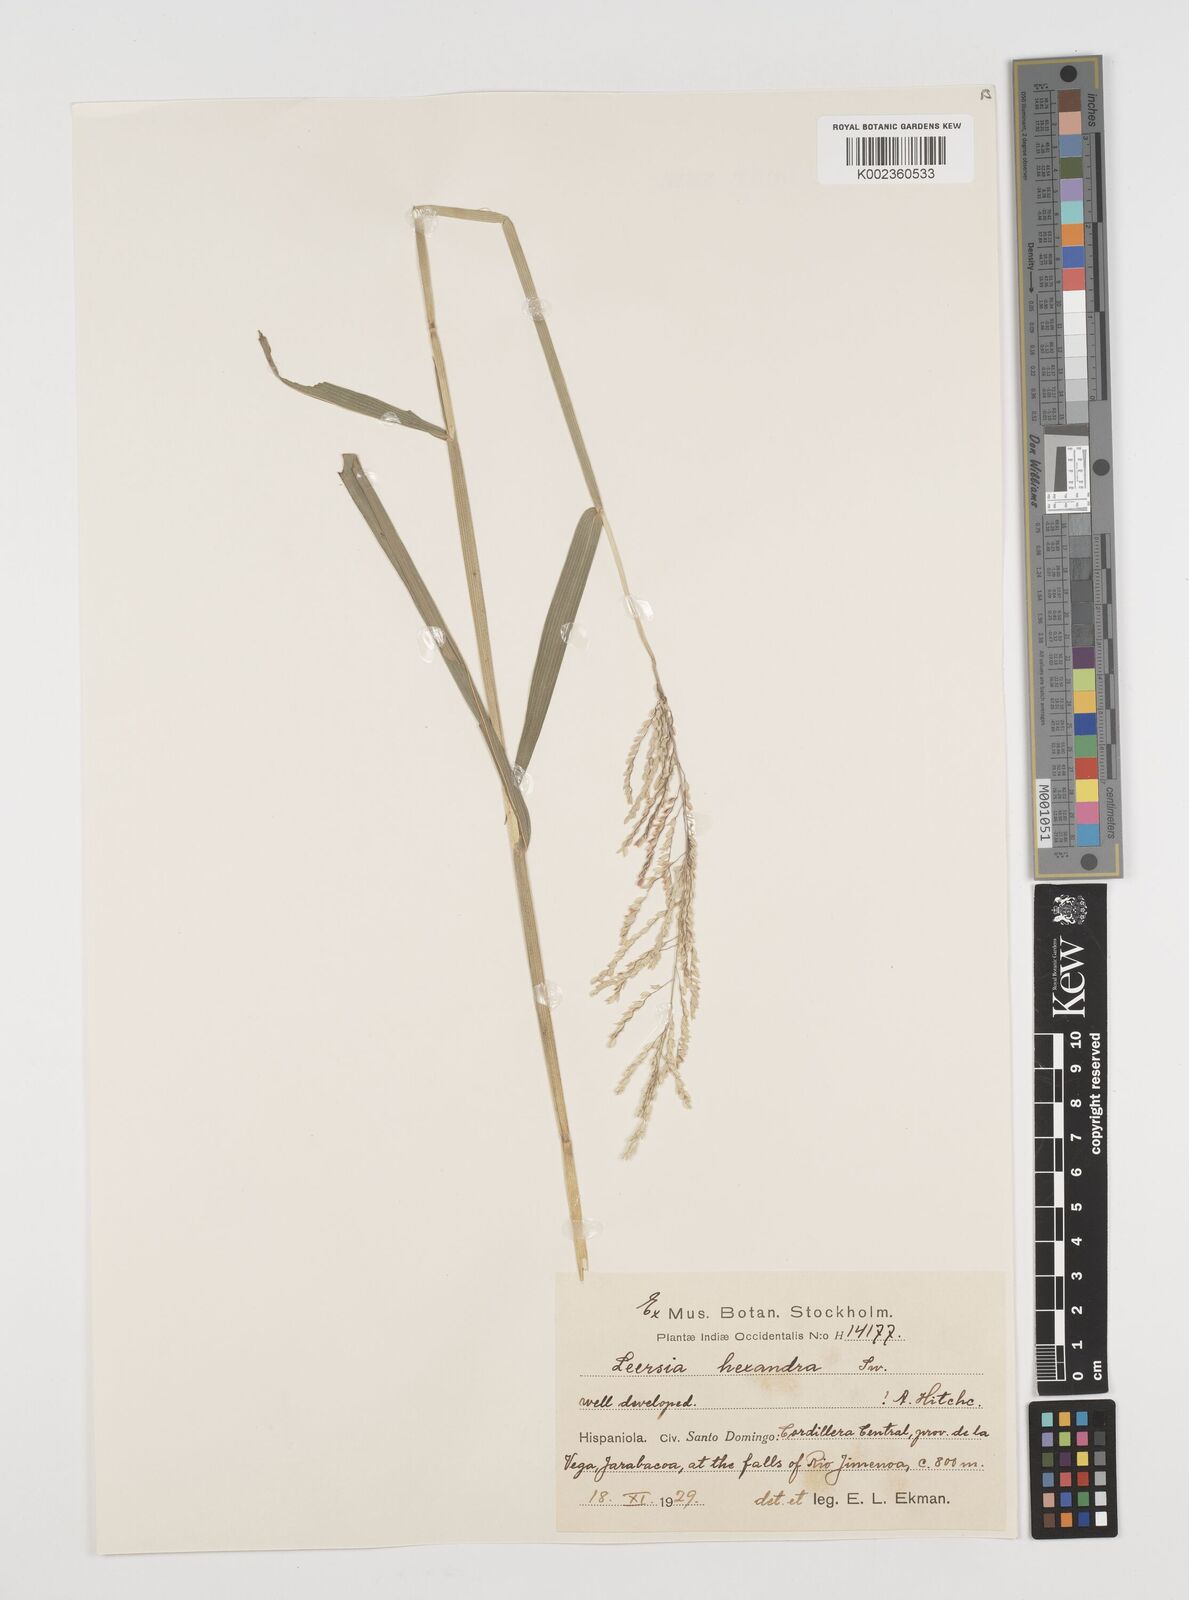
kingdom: Plantae
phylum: Tracheophyta
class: Liliopsida
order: Poales
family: Poaceae
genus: Leersia
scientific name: Leersia hexandra
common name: Southern cut grass
